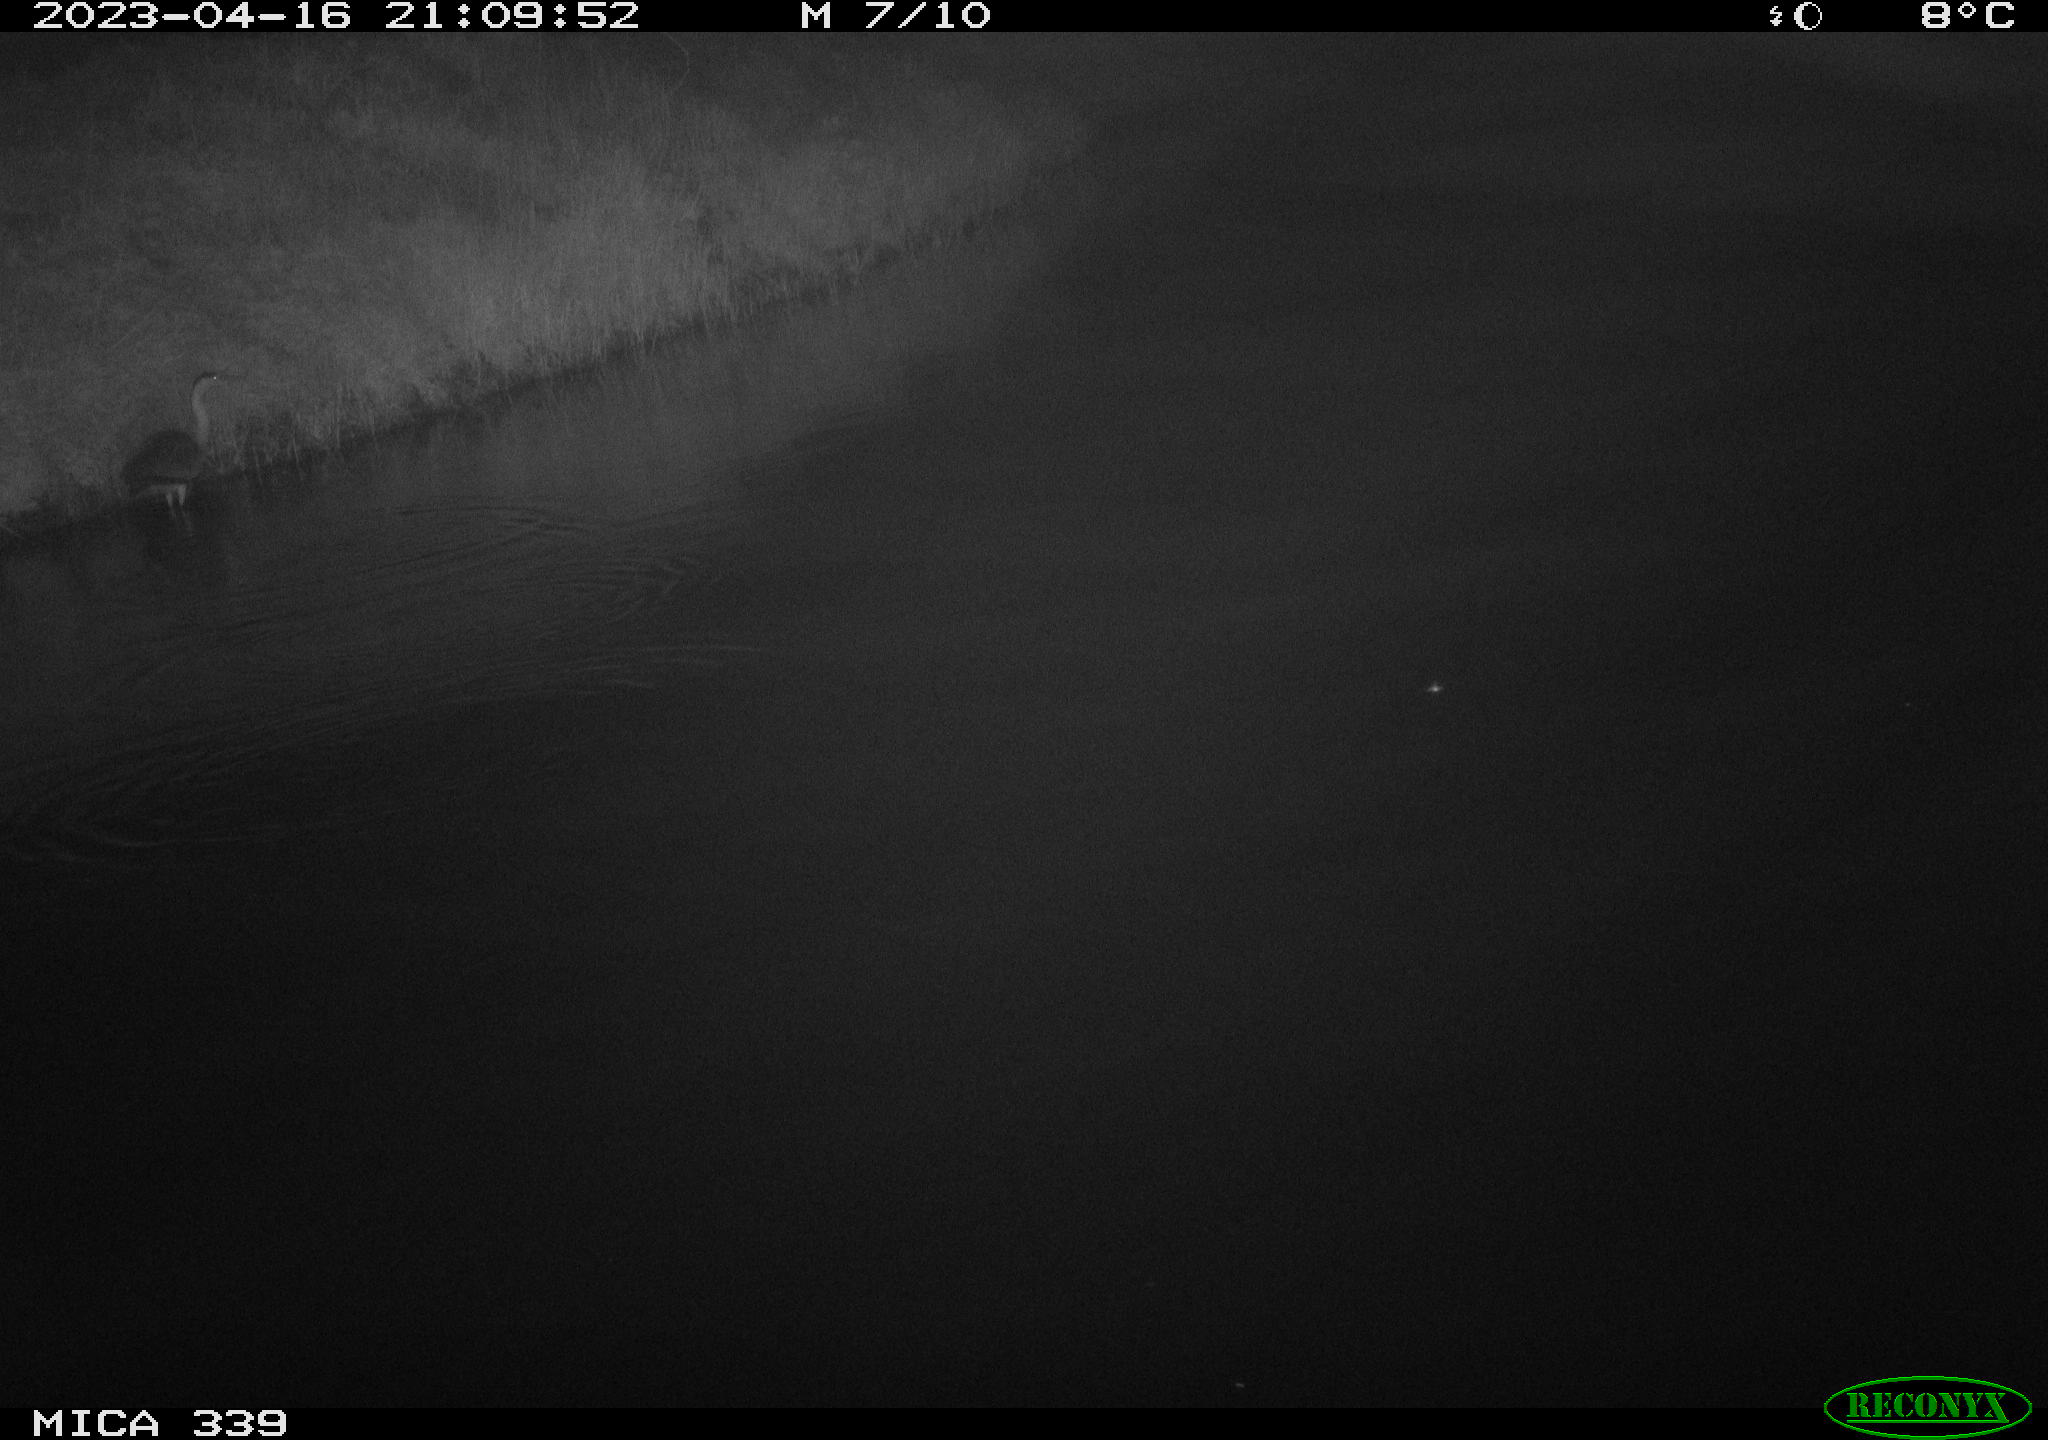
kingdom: Animalia
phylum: Chordata
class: Aves
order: Pelecaniformes
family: Ardeidae
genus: Ardea
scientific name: Ardea
